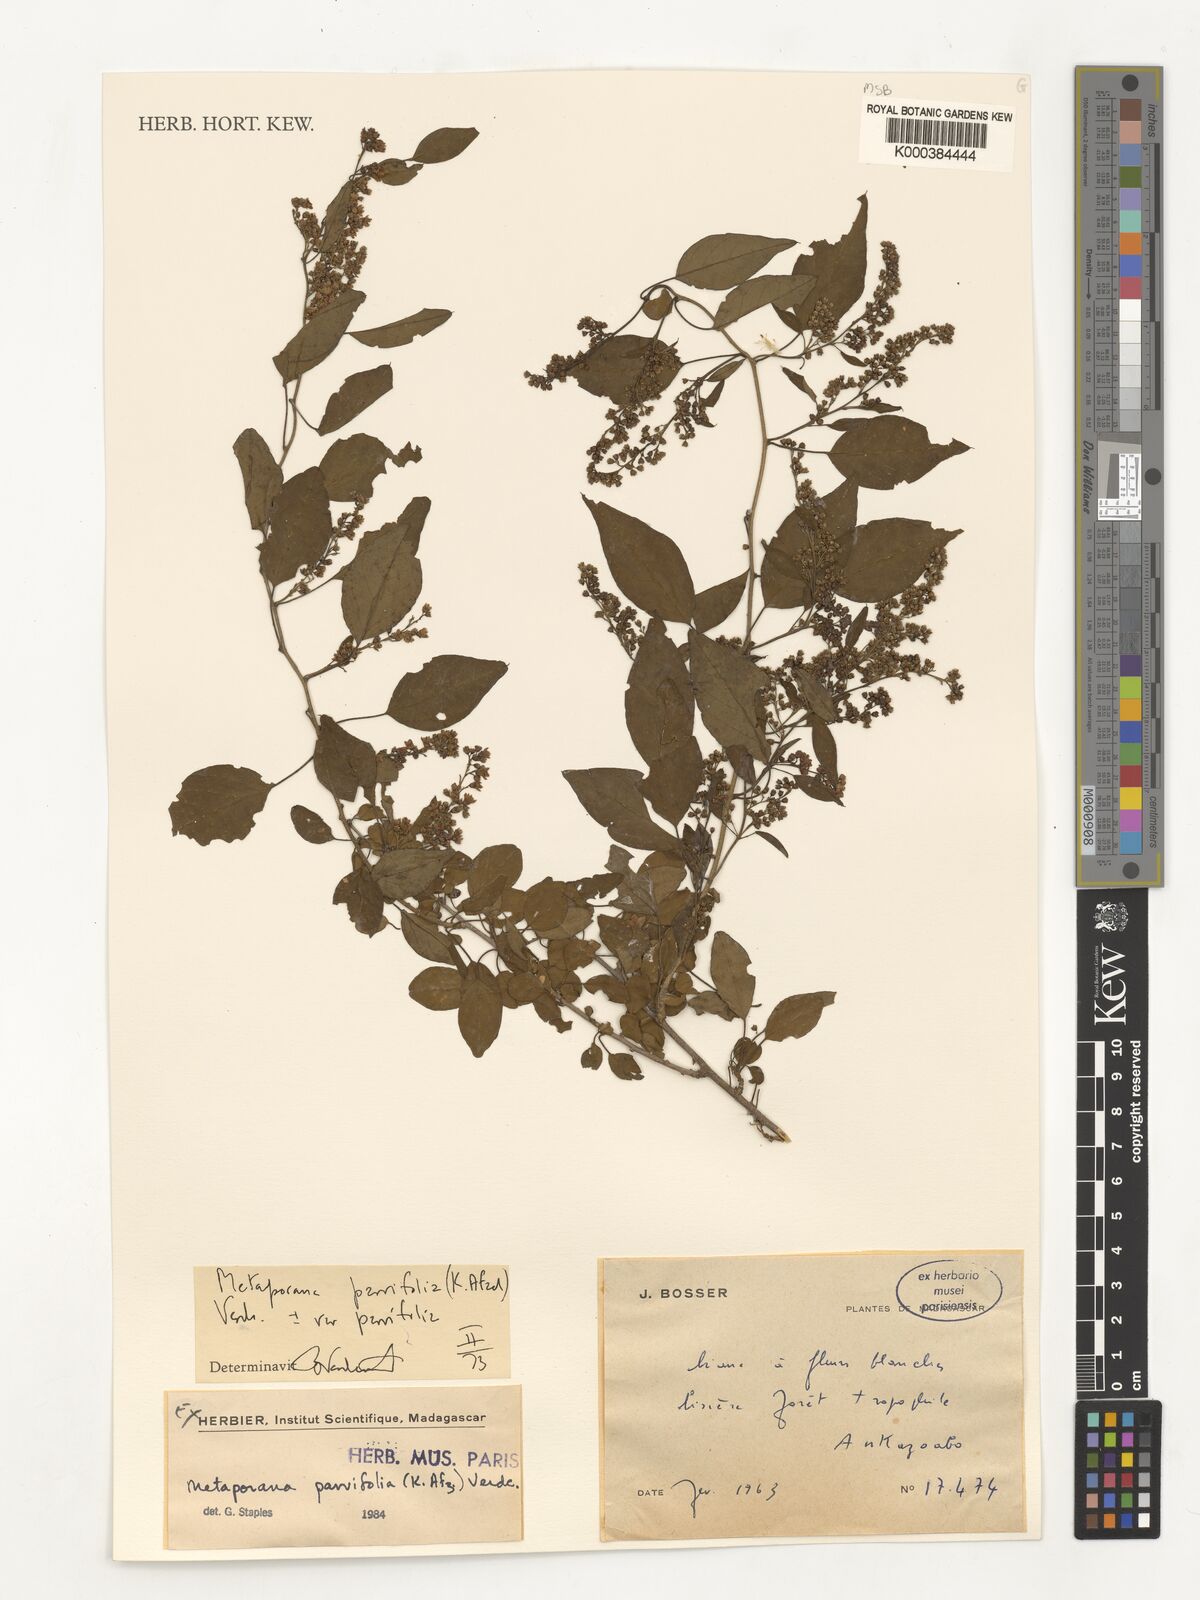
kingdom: Plantae
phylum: Tracheophyta
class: Magnoliopsida
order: Solanales
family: Convolvulaceae
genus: Metaporana
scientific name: Metaporana parvifolia
